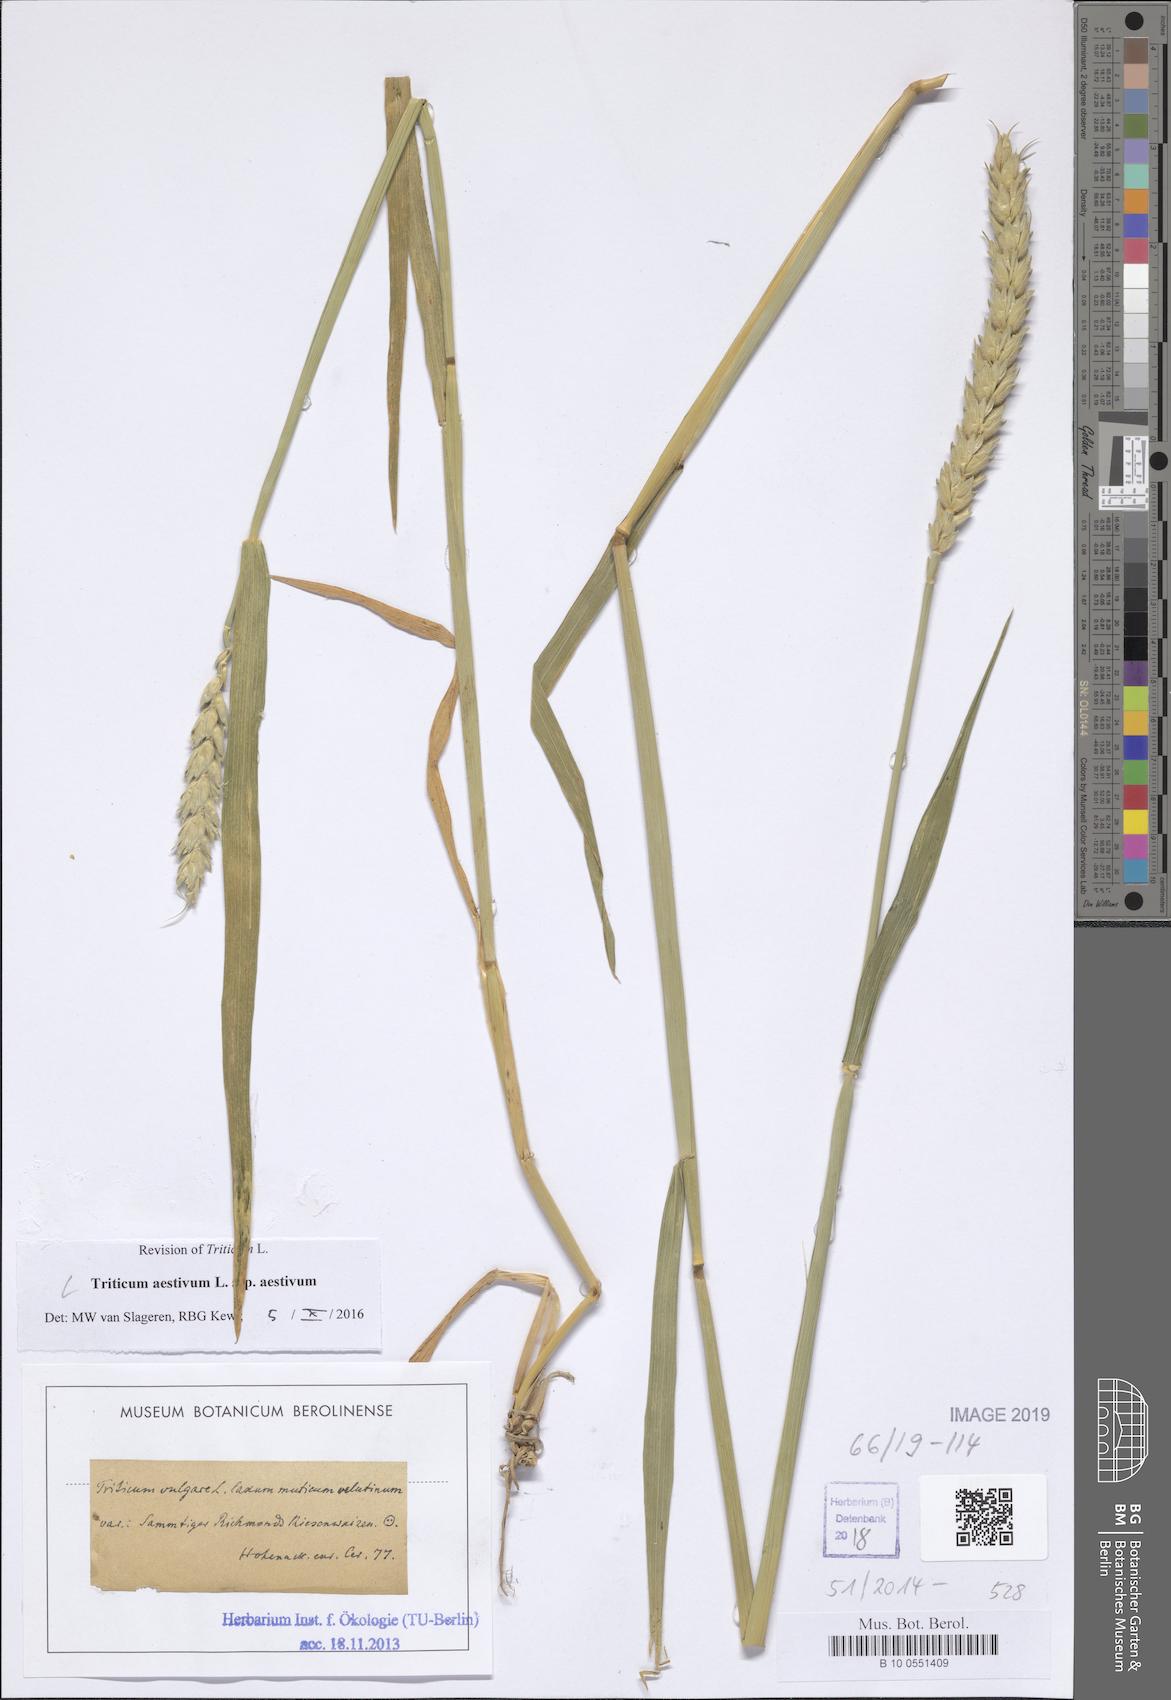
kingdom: Plantae
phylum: Tracheophyta
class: Liliopsida
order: Poales
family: Poaceae
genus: Triticum
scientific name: Triticum aestivum
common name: Common wheat
